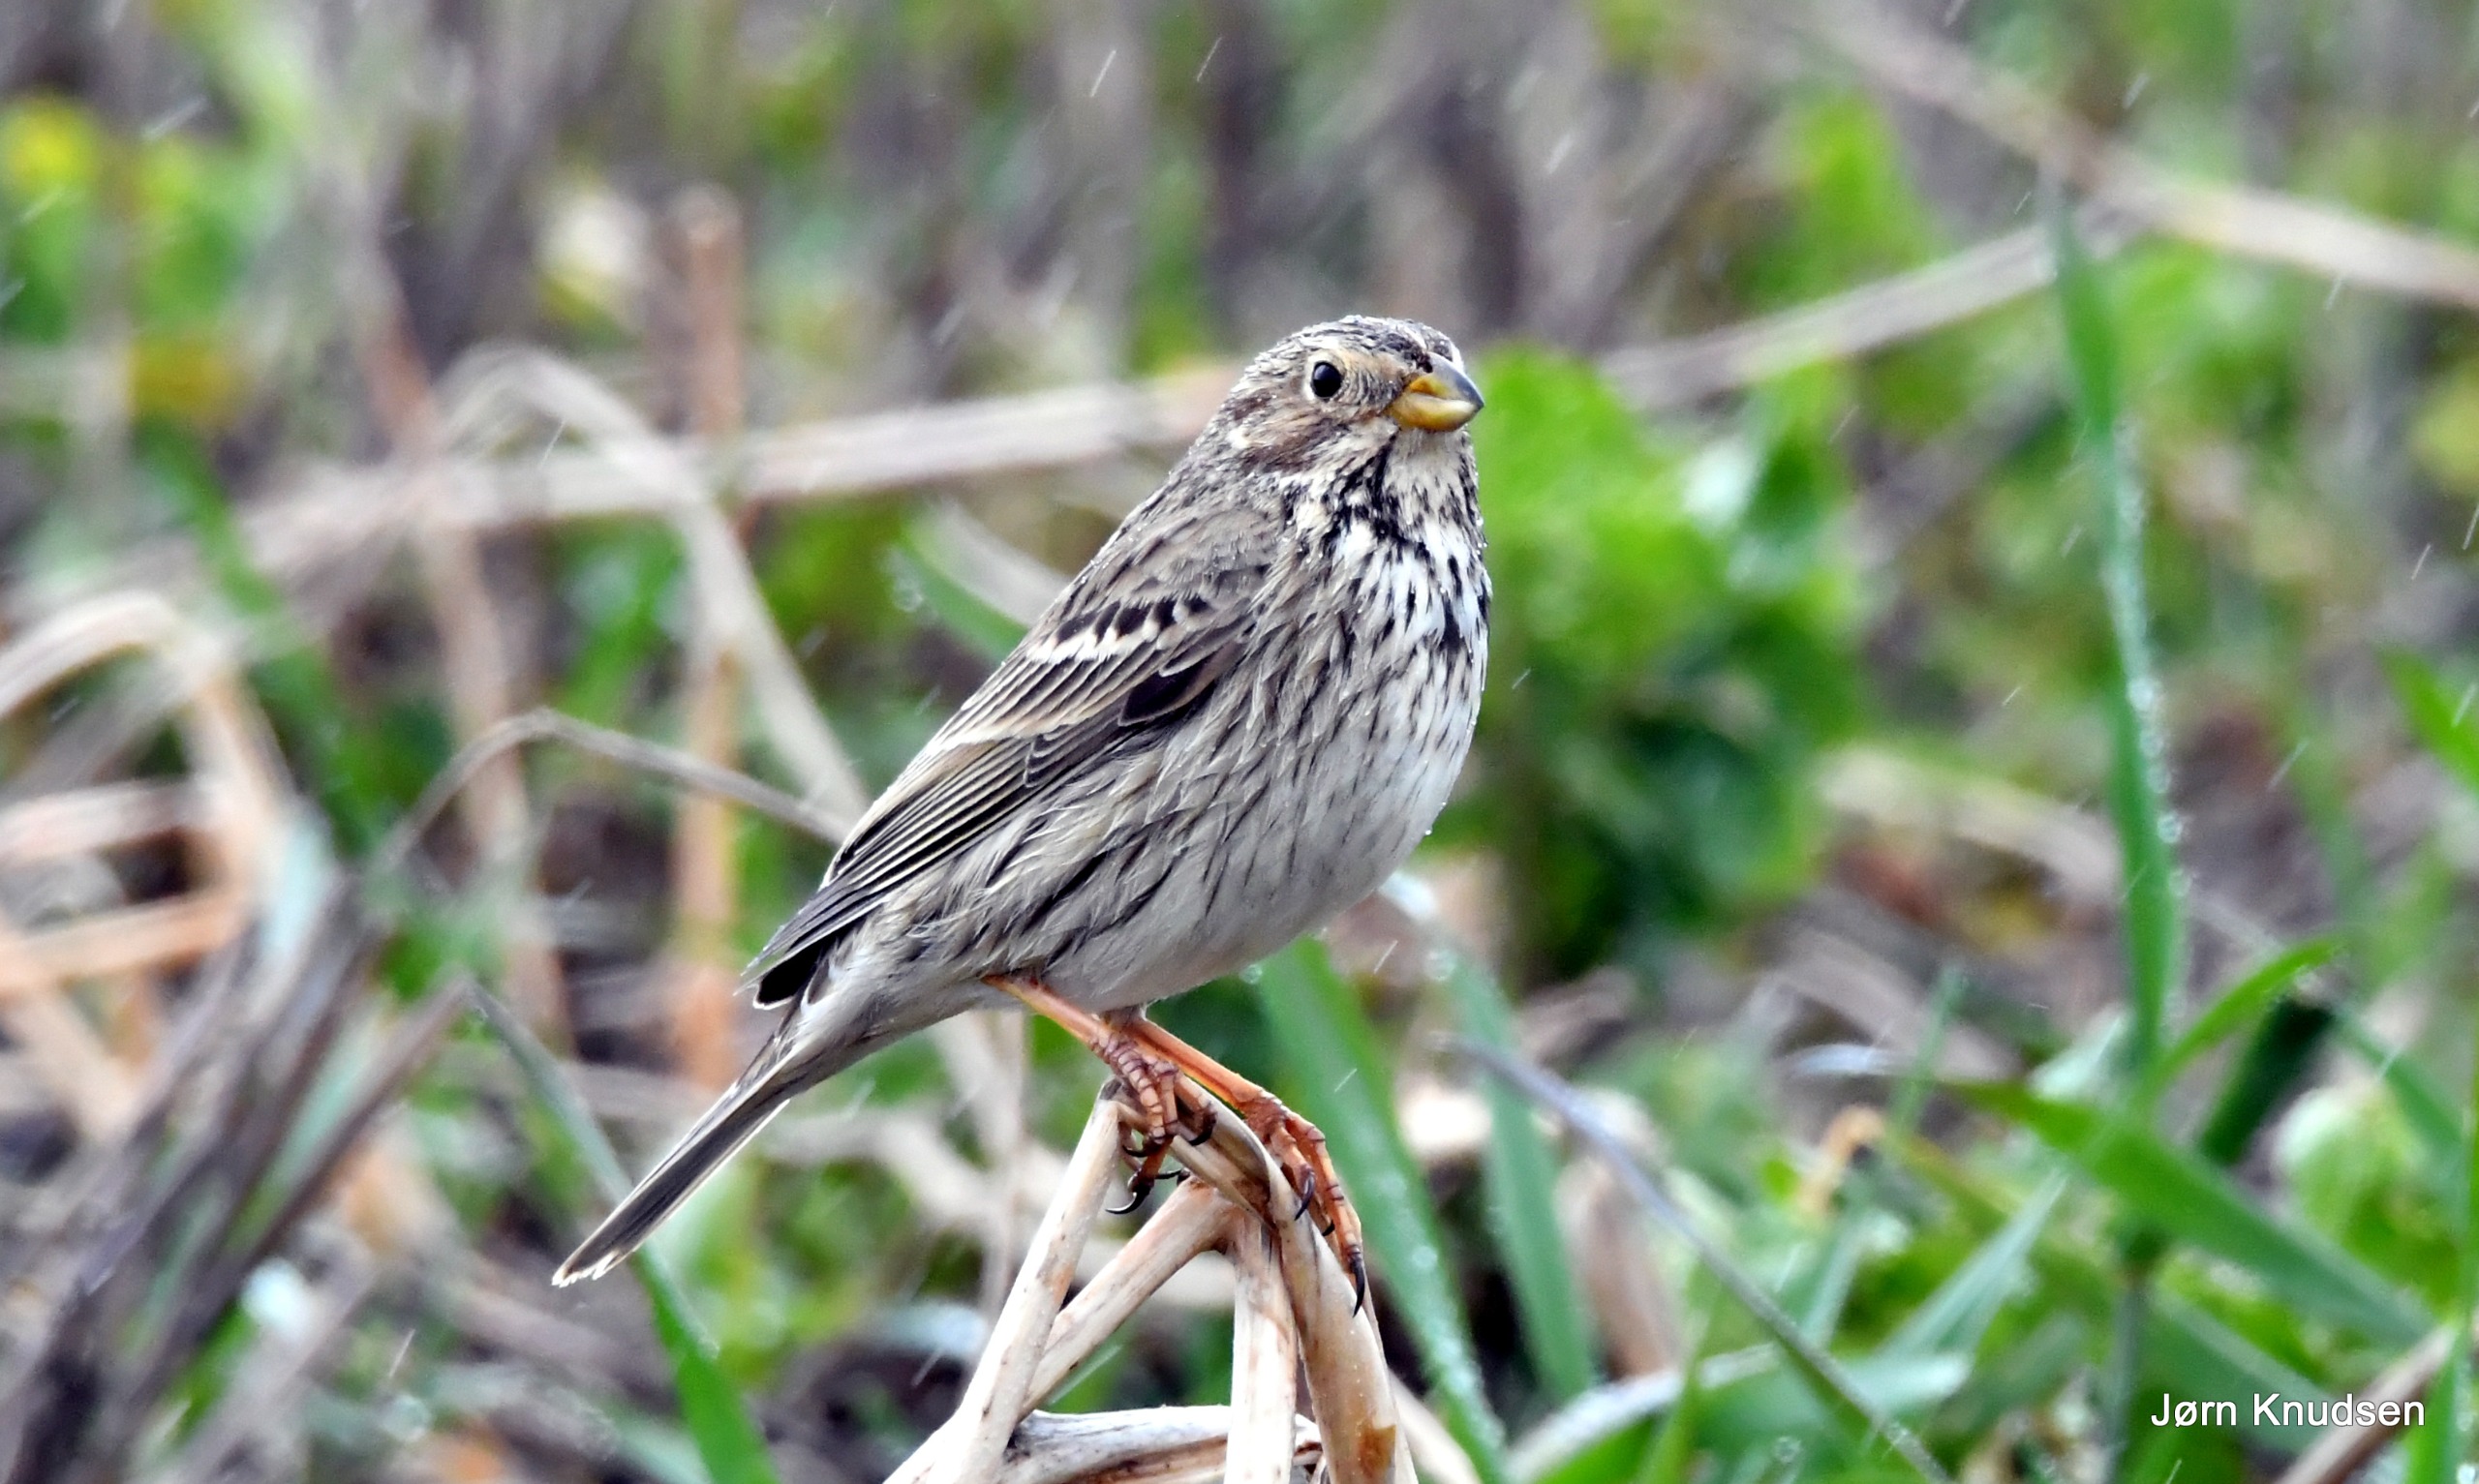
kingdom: Animalia
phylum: Chordata
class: Aves
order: Passeriformes
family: Emberizidae
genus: Emberiza
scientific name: Emberiza calandra
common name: Bomlærke
